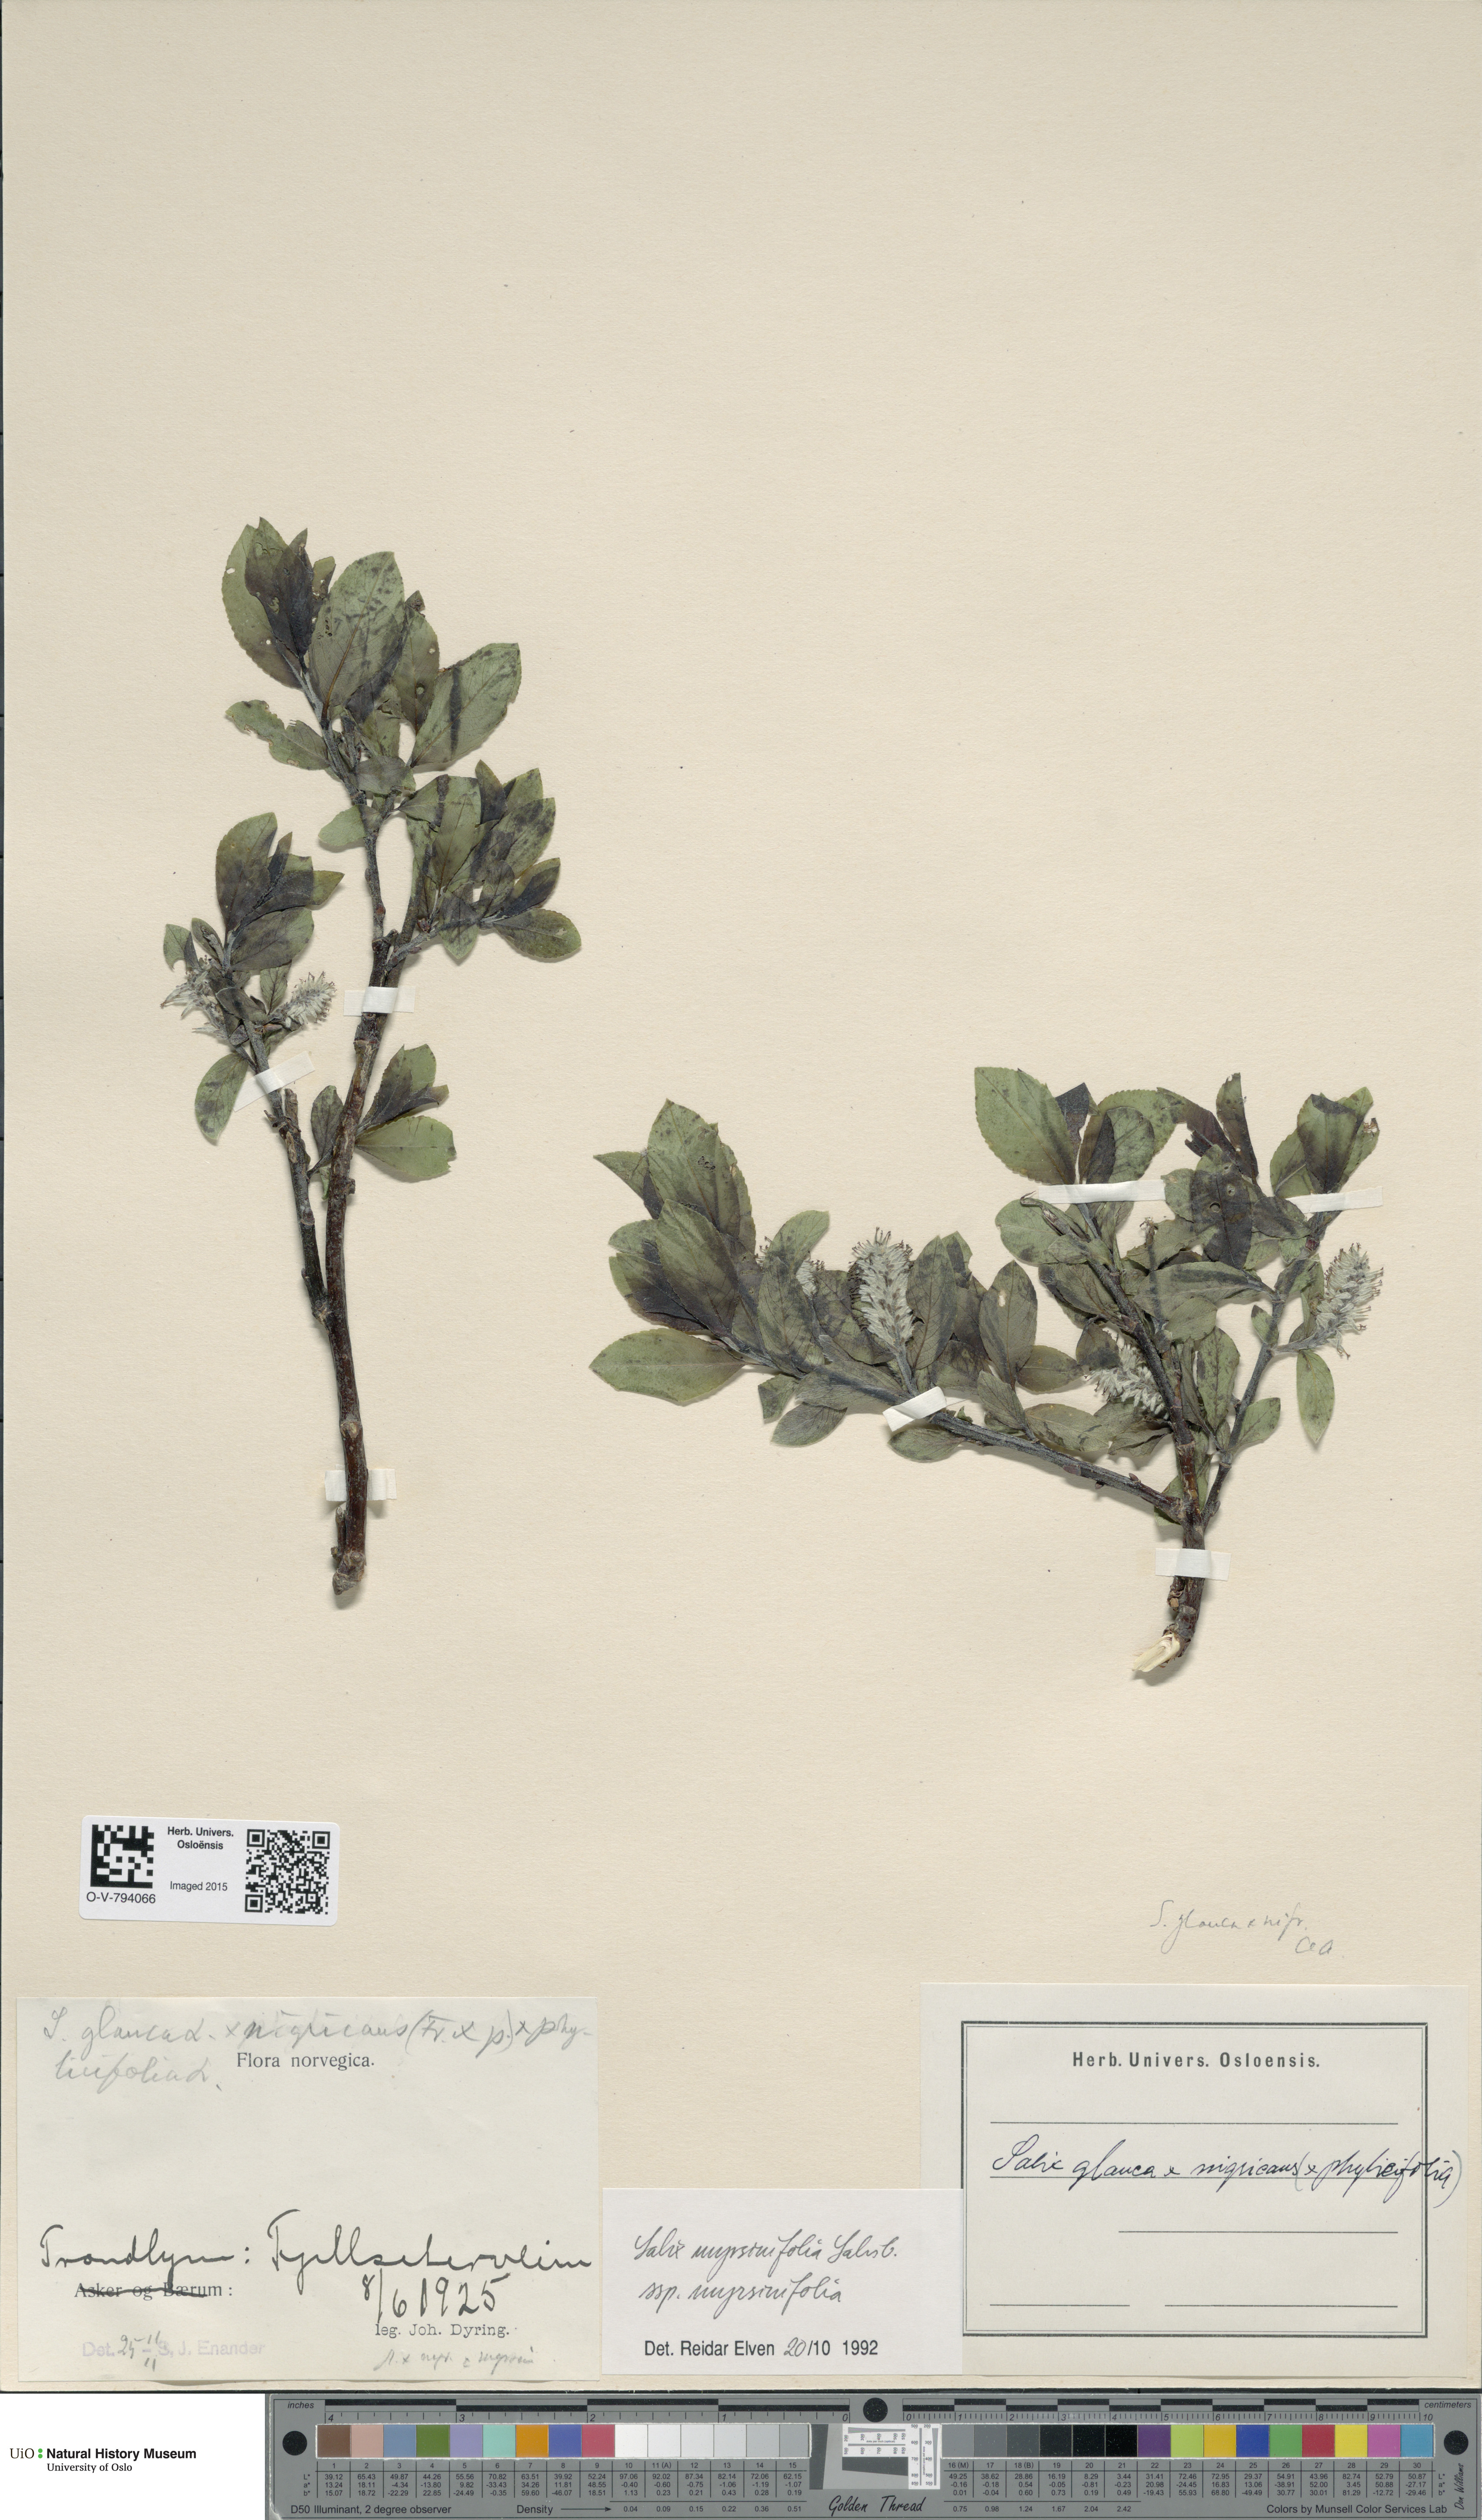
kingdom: Plantae
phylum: Tracheophyta
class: Magnoliopsida
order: Malpighiales
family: Salicaceae
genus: Salix
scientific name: Salix myrsinifolia
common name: Dark-leaved willow
